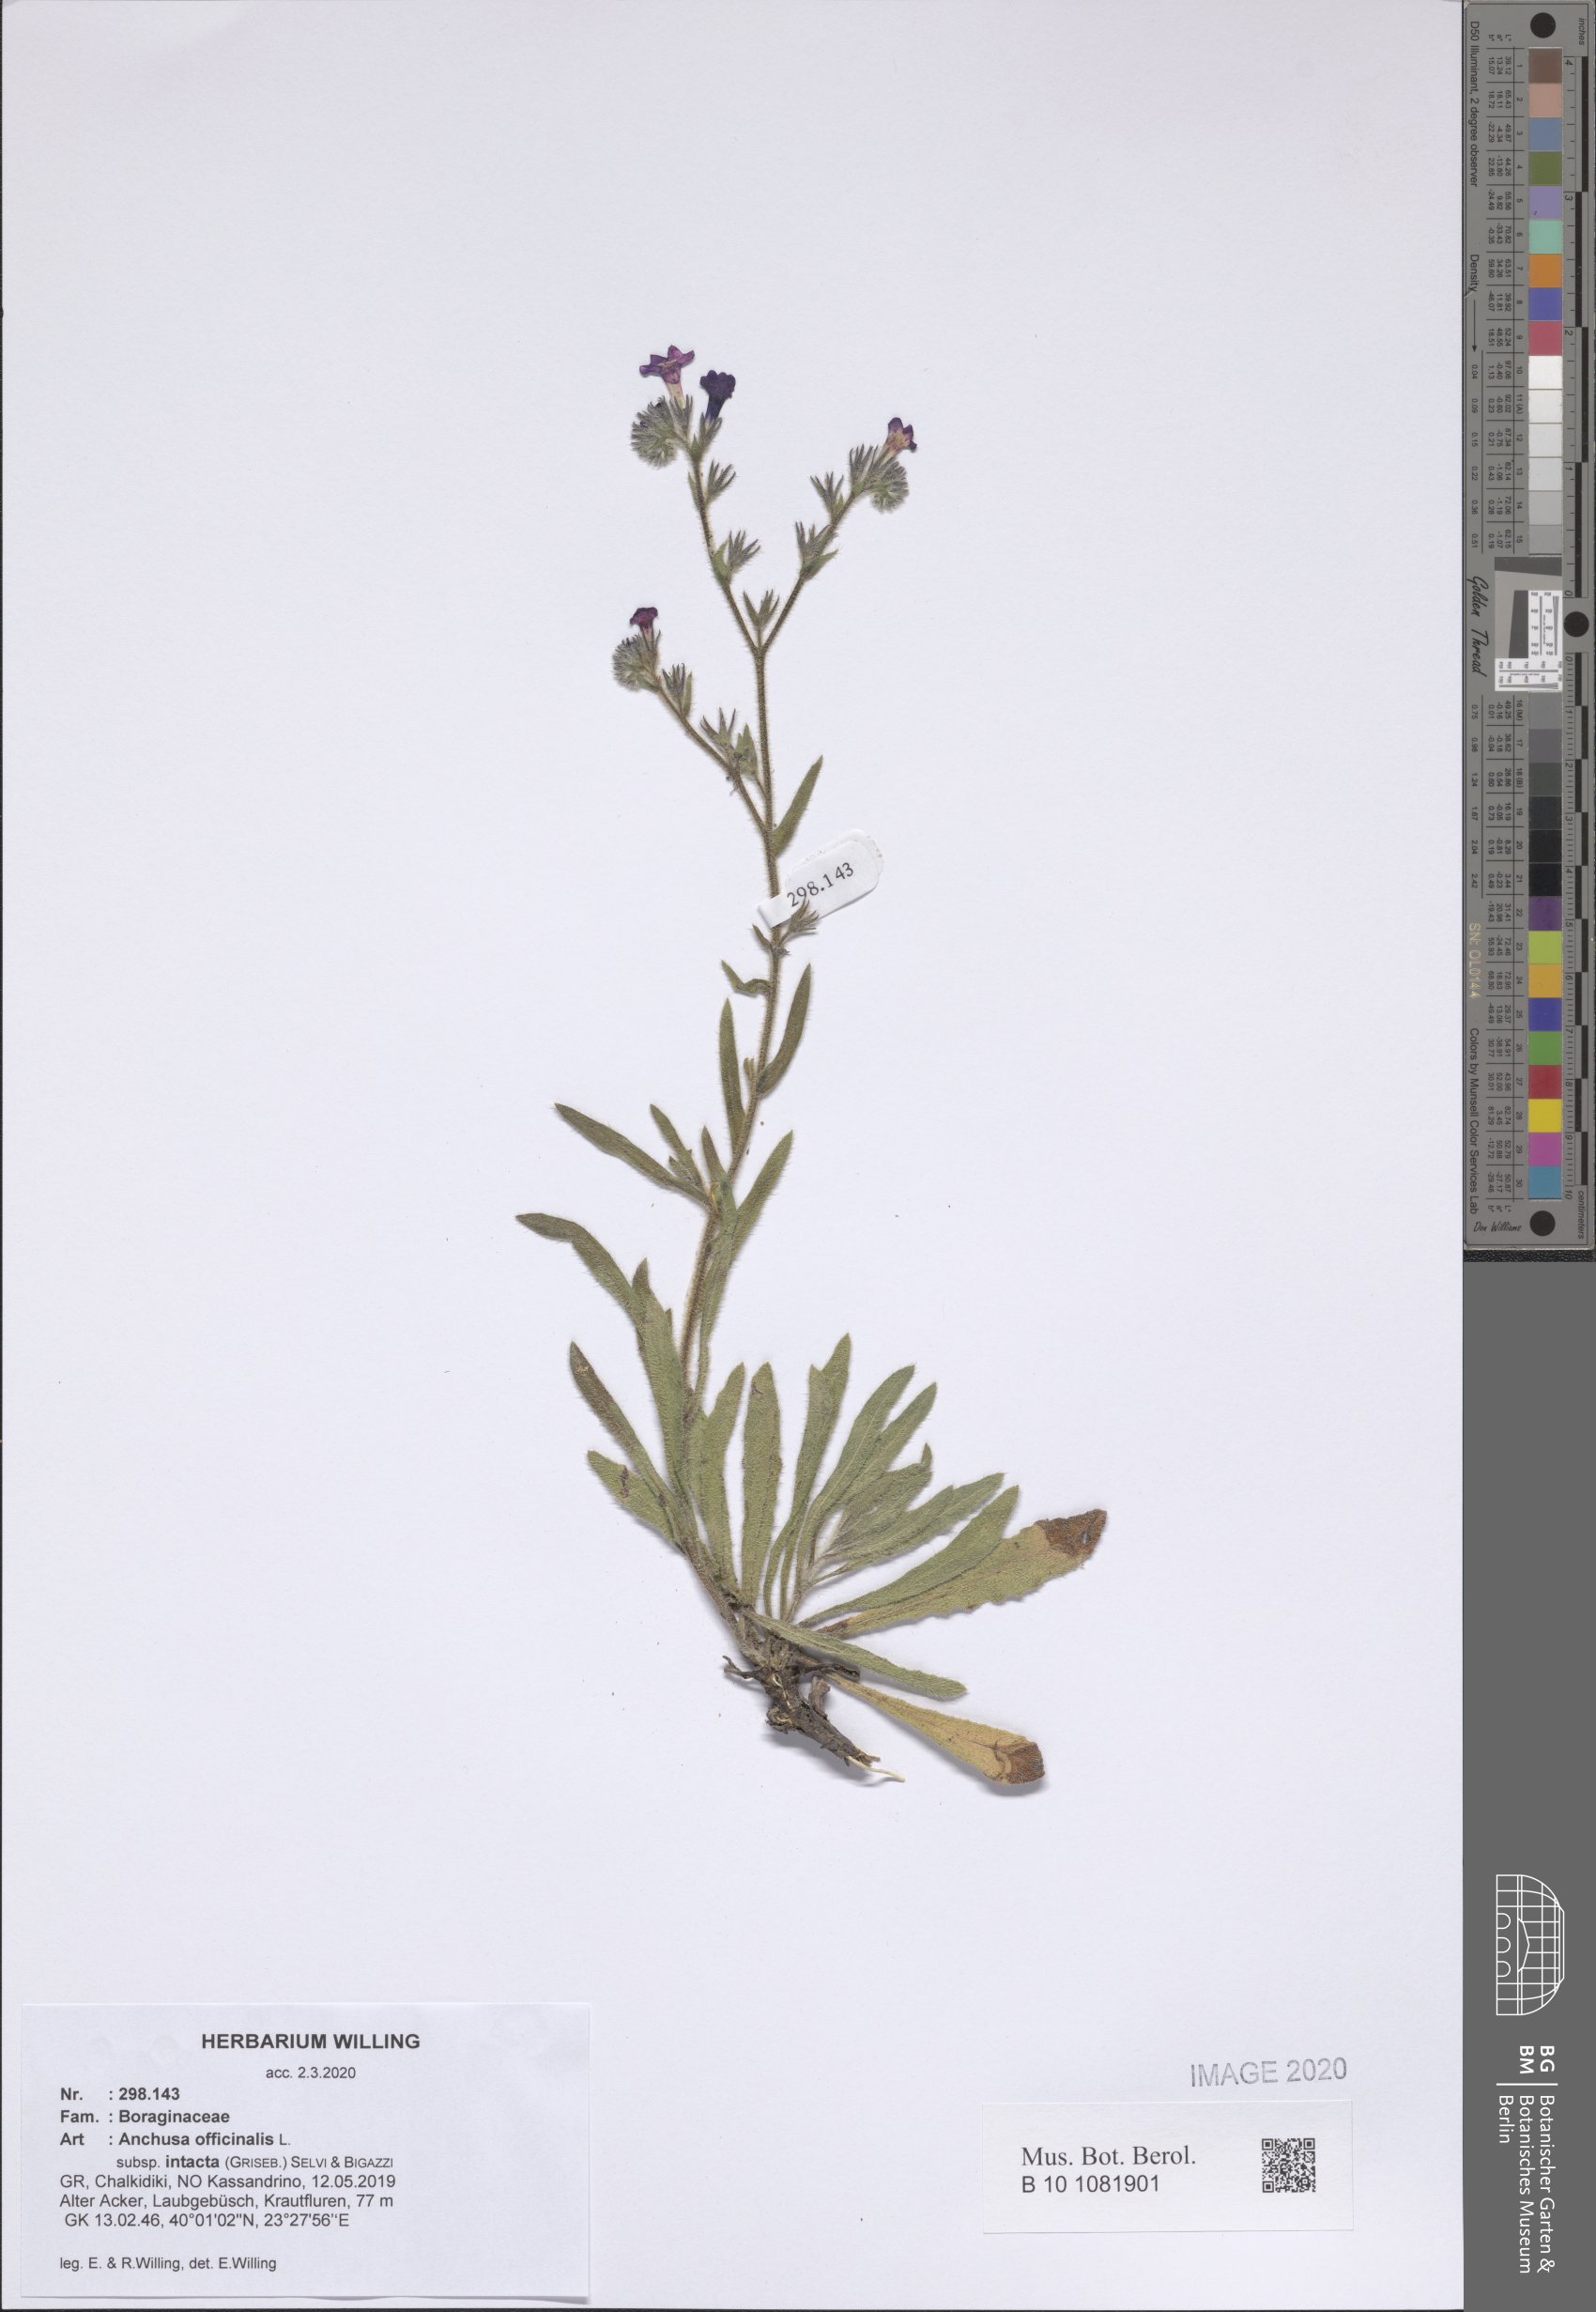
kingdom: Plantae
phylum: Tracheophyta
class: Magnoliopsida
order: Boraginales
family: Boraginaceae
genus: Anchusa
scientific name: Anchusa officinalis
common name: Alkanet
